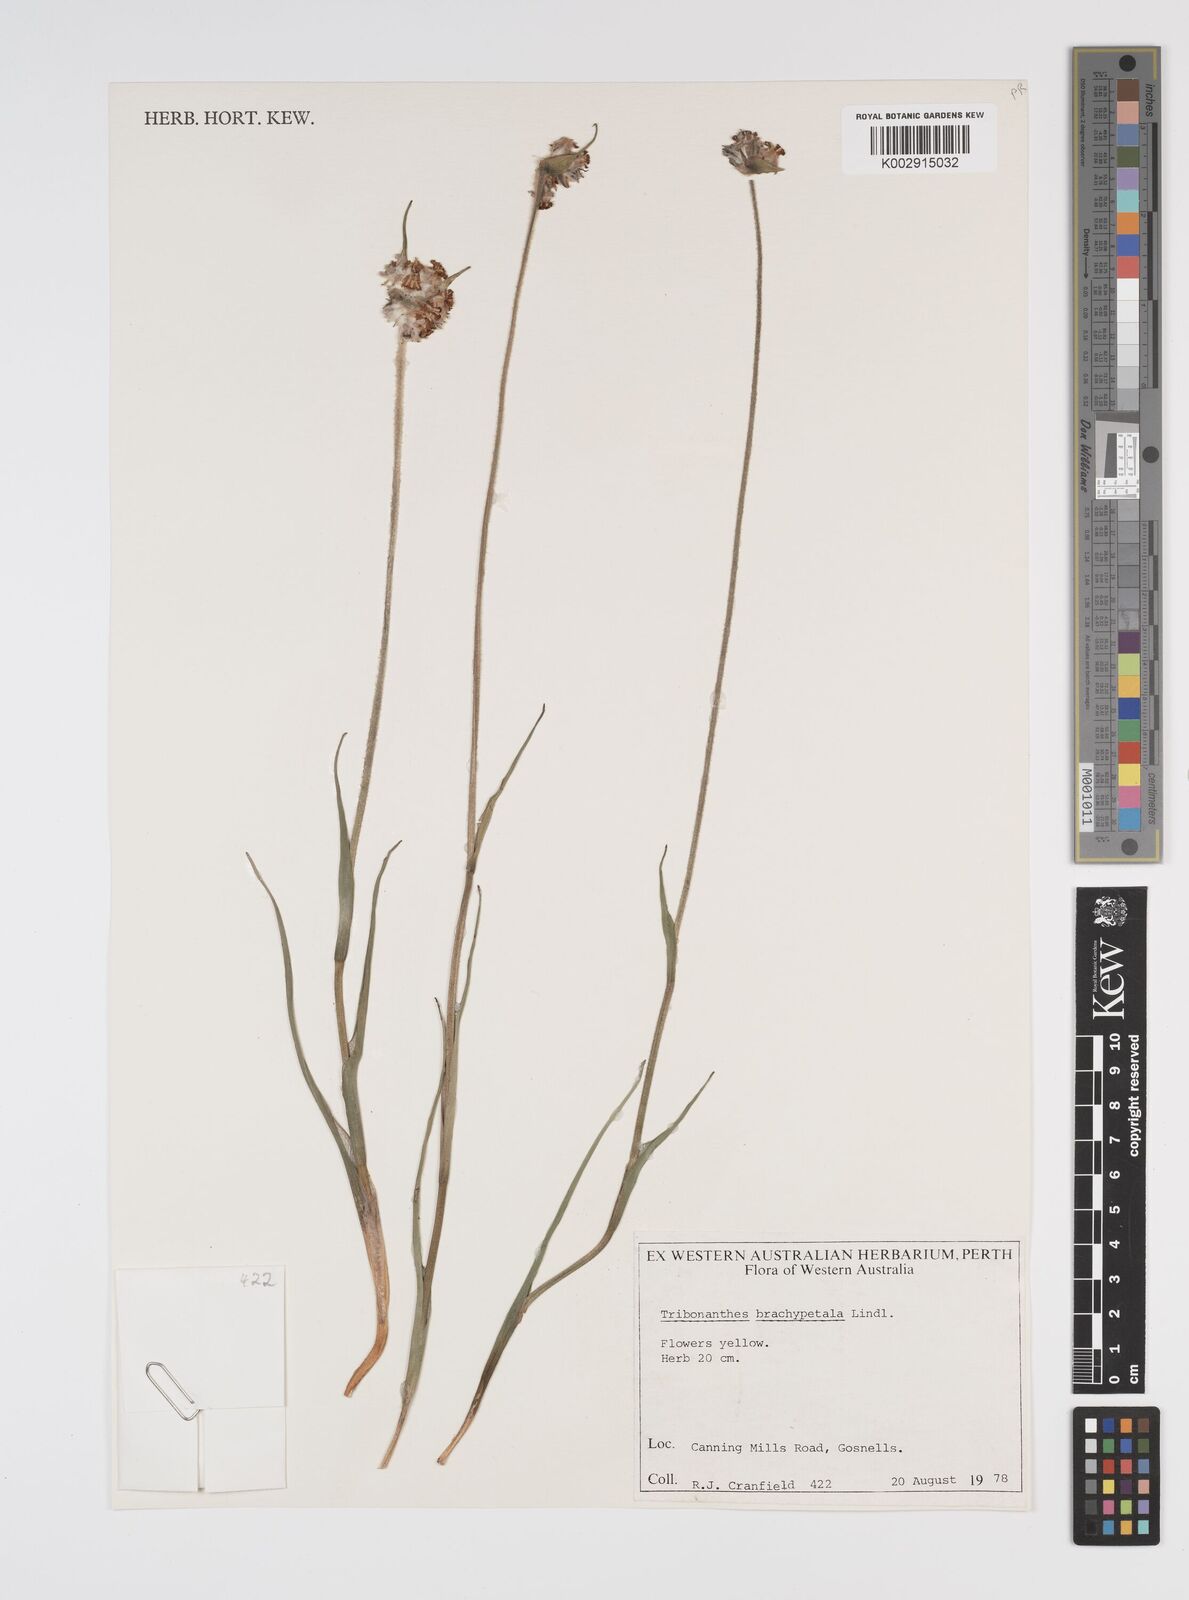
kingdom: Plantae
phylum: Tracheophyta
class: Liliopsida
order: Commelinales
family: Haemodoraceae
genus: Tribonanthes
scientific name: Tribonanthes brachypetala
